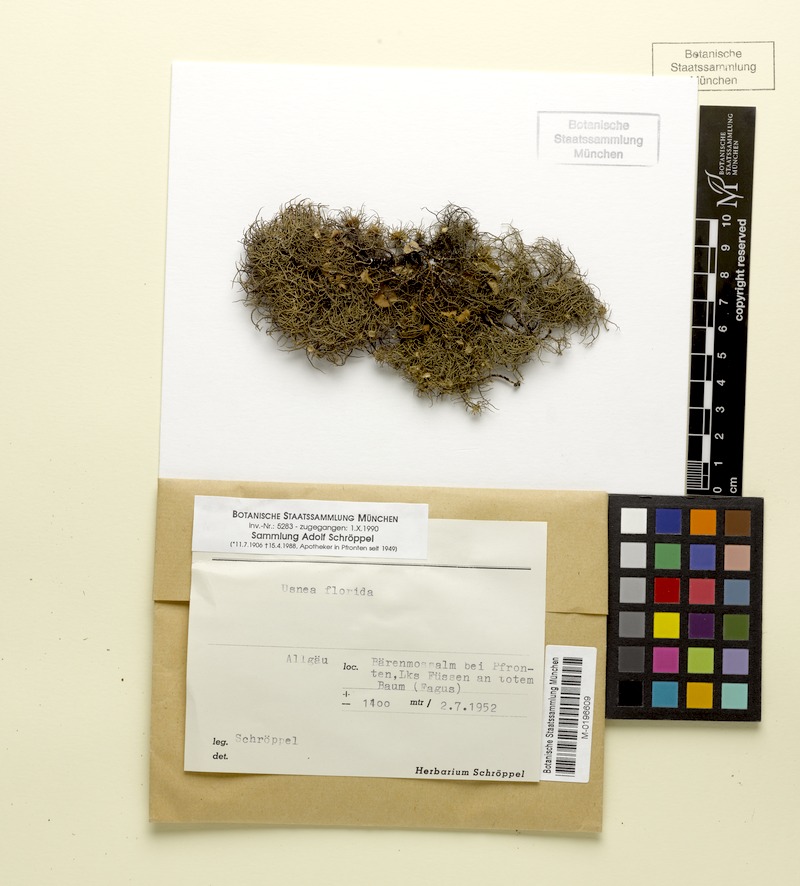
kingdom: Fungi
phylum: Ascomycota
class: Lecanoromycetes
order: Lecanorales
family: Parmeliaceae
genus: Usnea
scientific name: Usnea florida
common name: Witches' whiskers lichen
